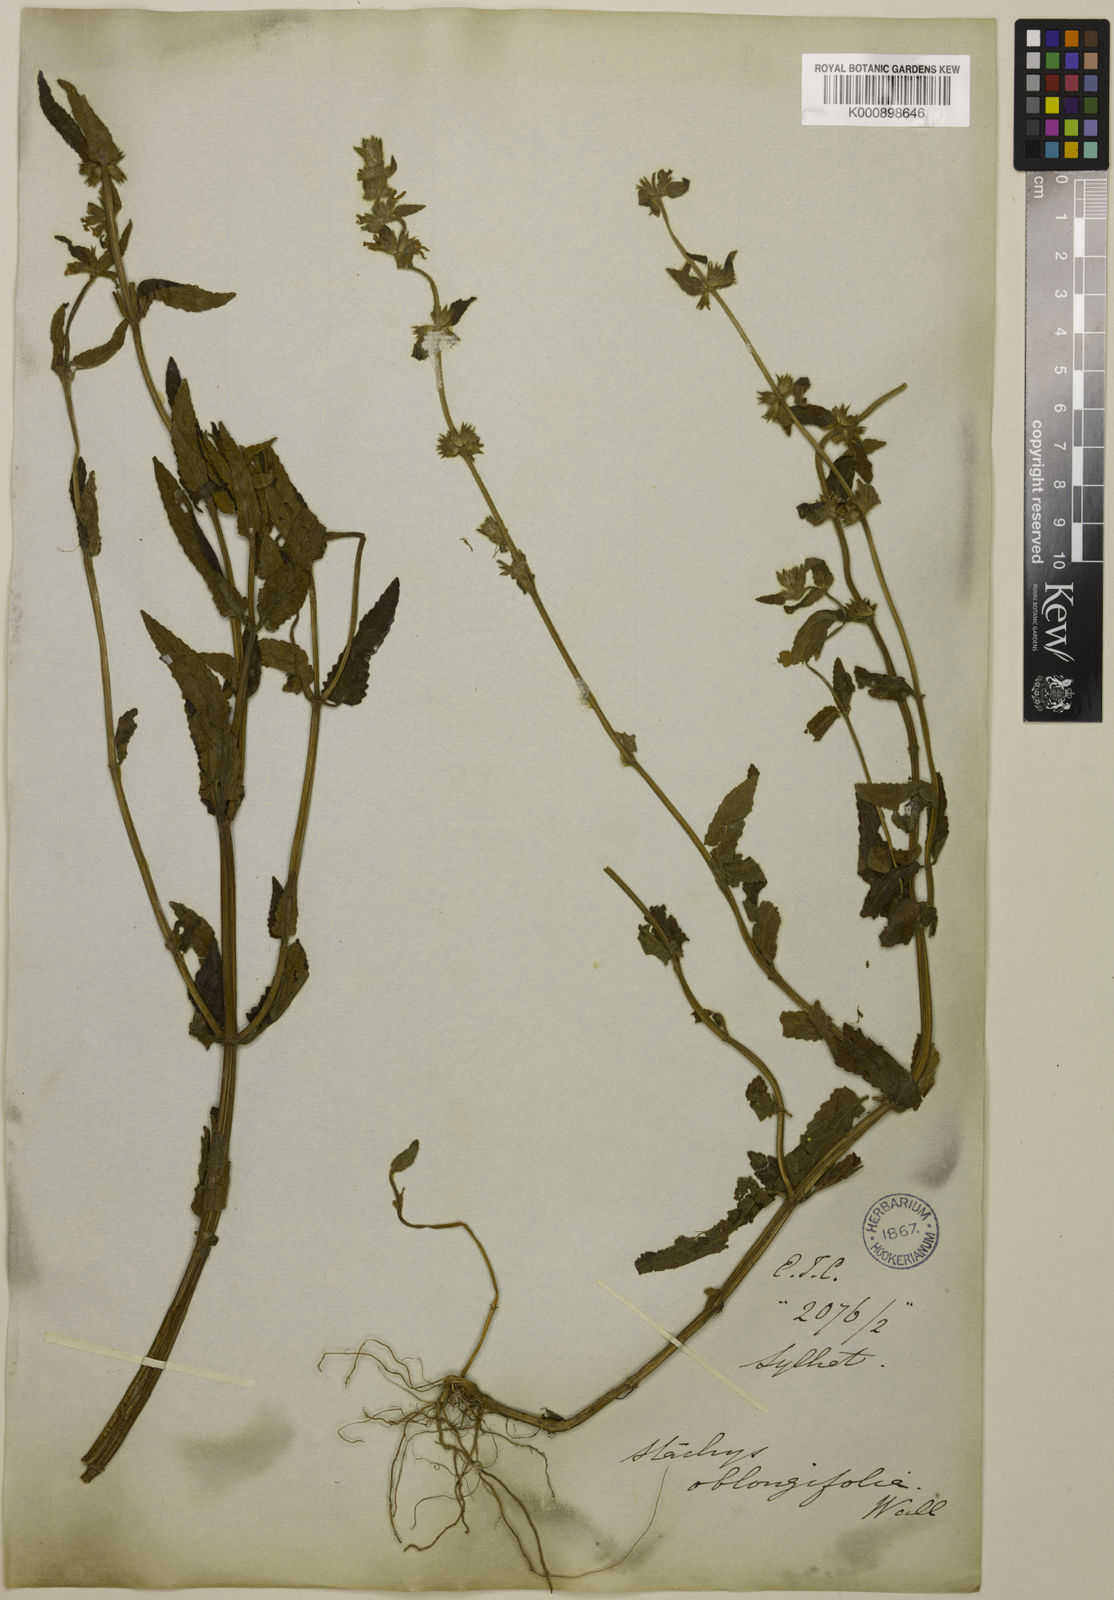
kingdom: Plantae
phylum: Tracheophyta
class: Magnoliopsida
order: Lamiales
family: Lamiaceae
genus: Stachys
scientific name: Stachys oblongifolia
